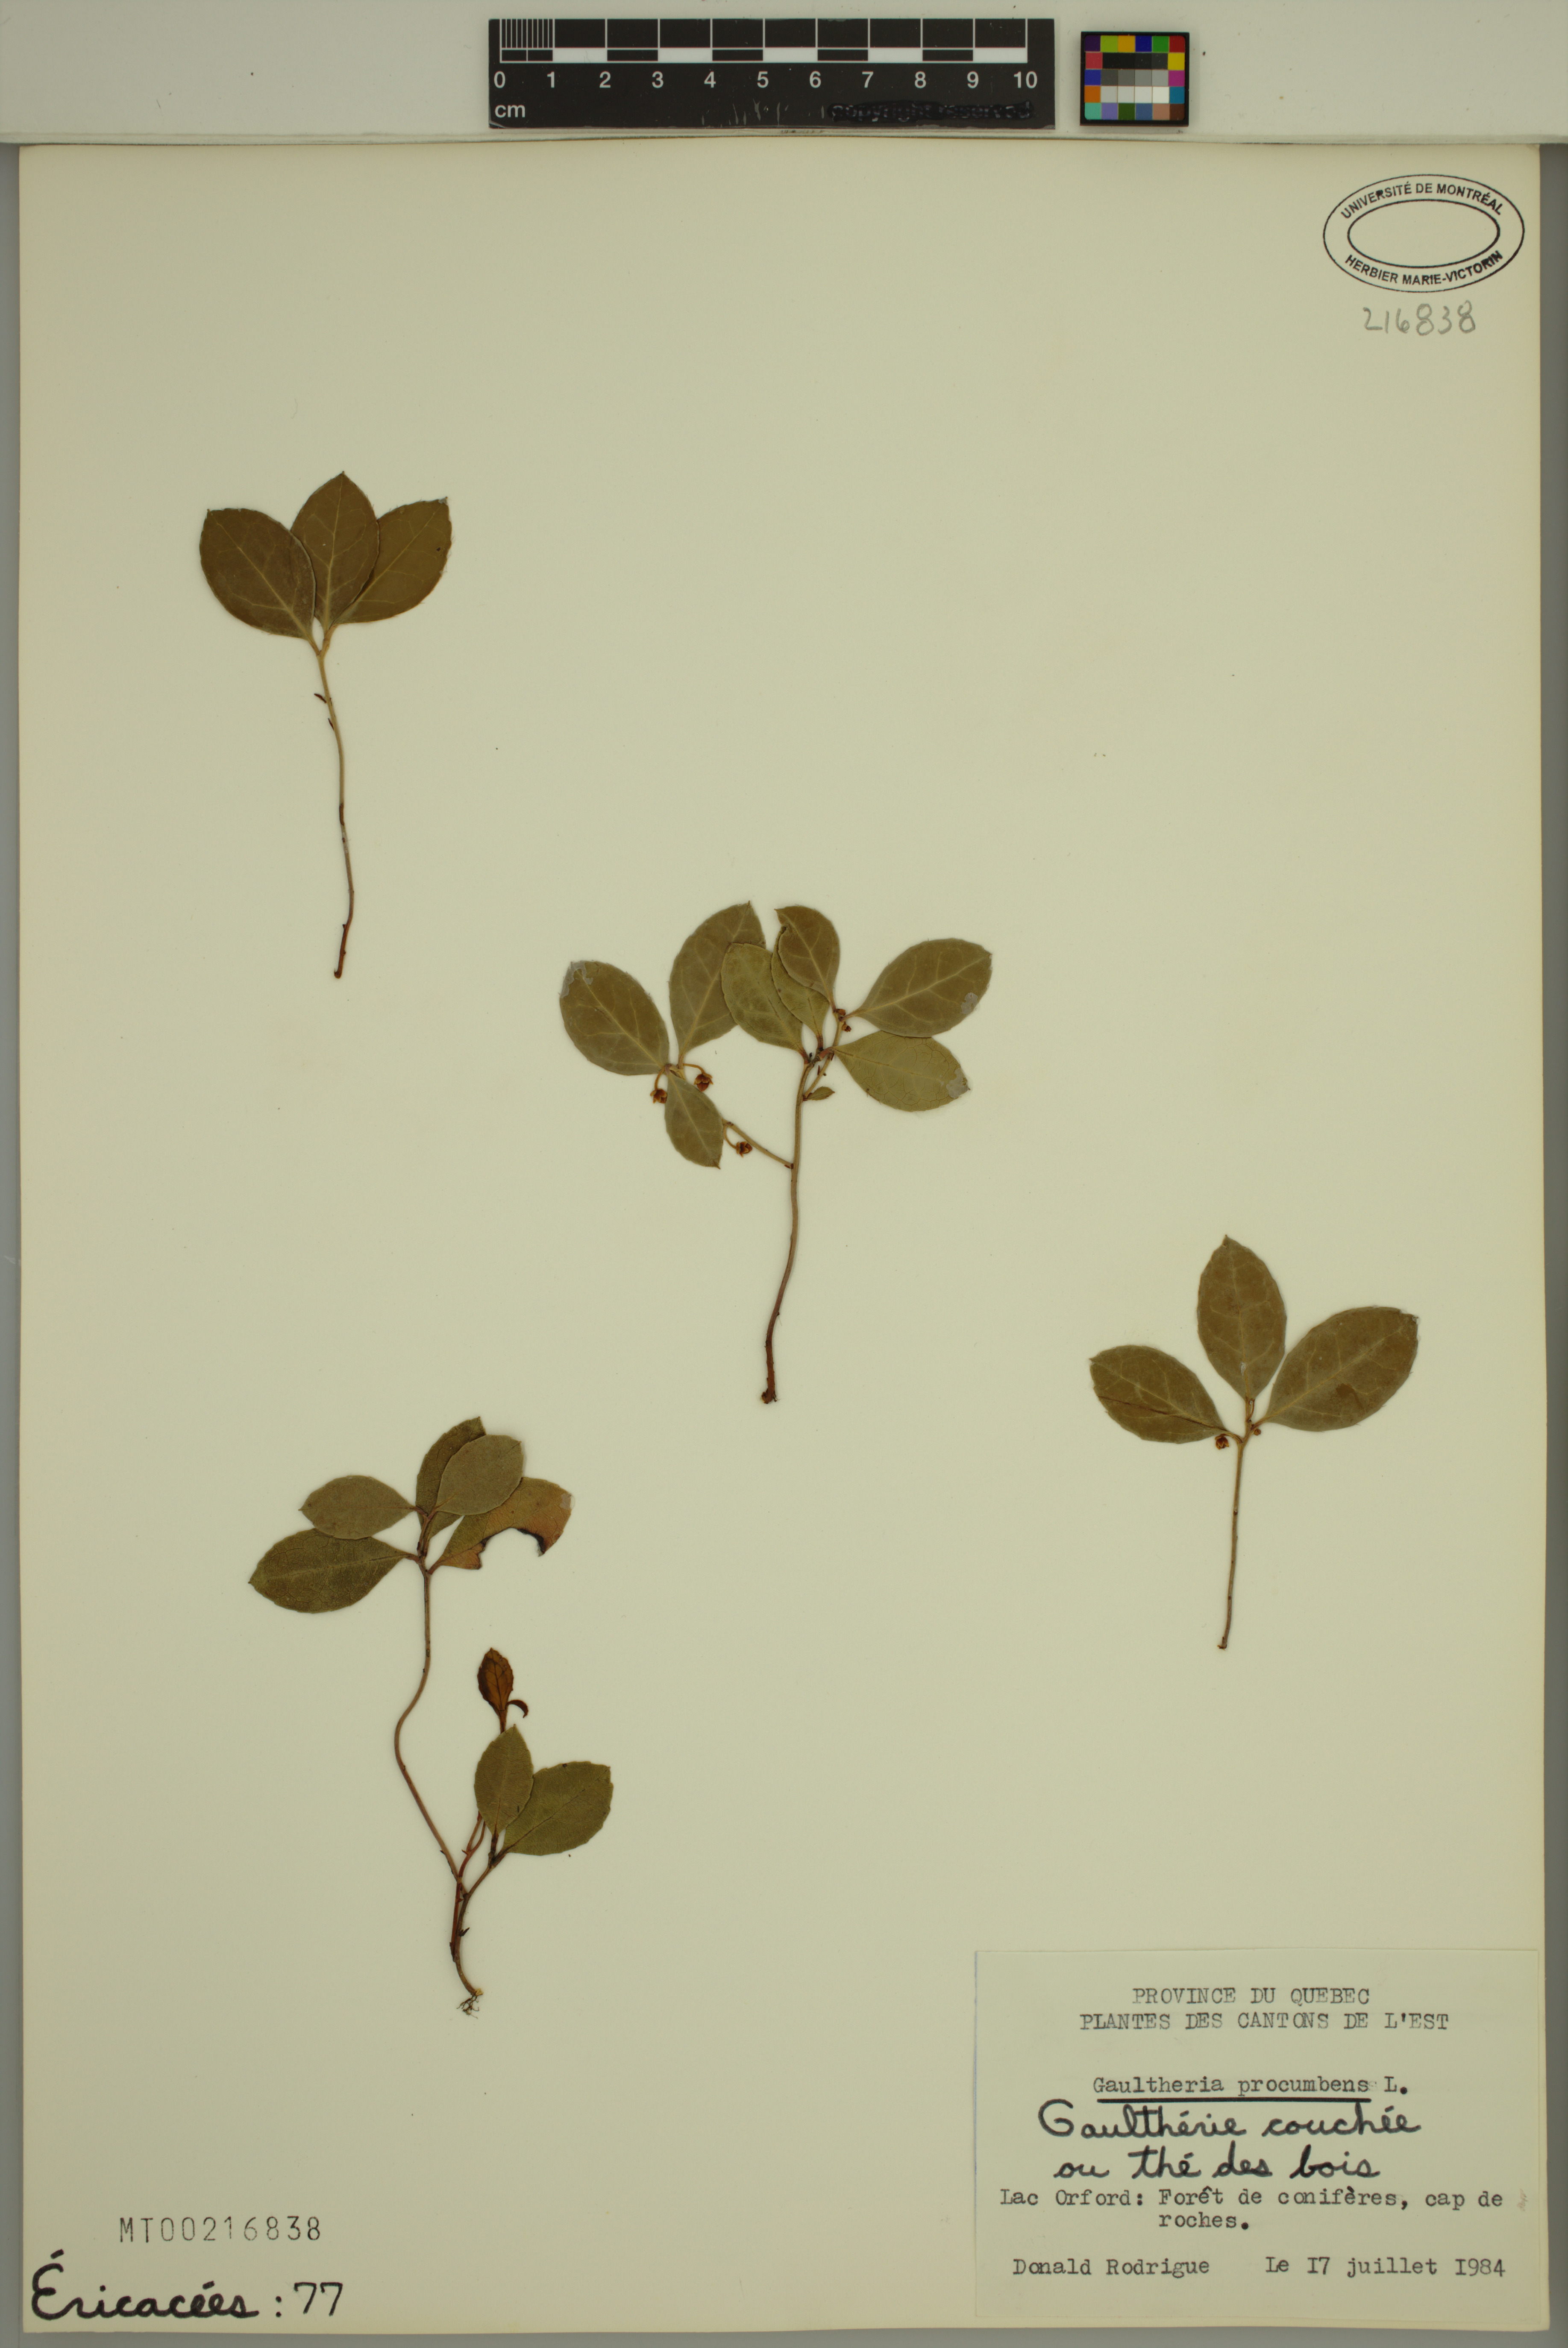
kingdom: Plantae
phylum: Tracheophyta
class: Magnoliopsida
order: Ericales
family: Ericaceae
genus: Gaultheria
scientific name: Gaultheria procumbens
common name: Checkerberry
